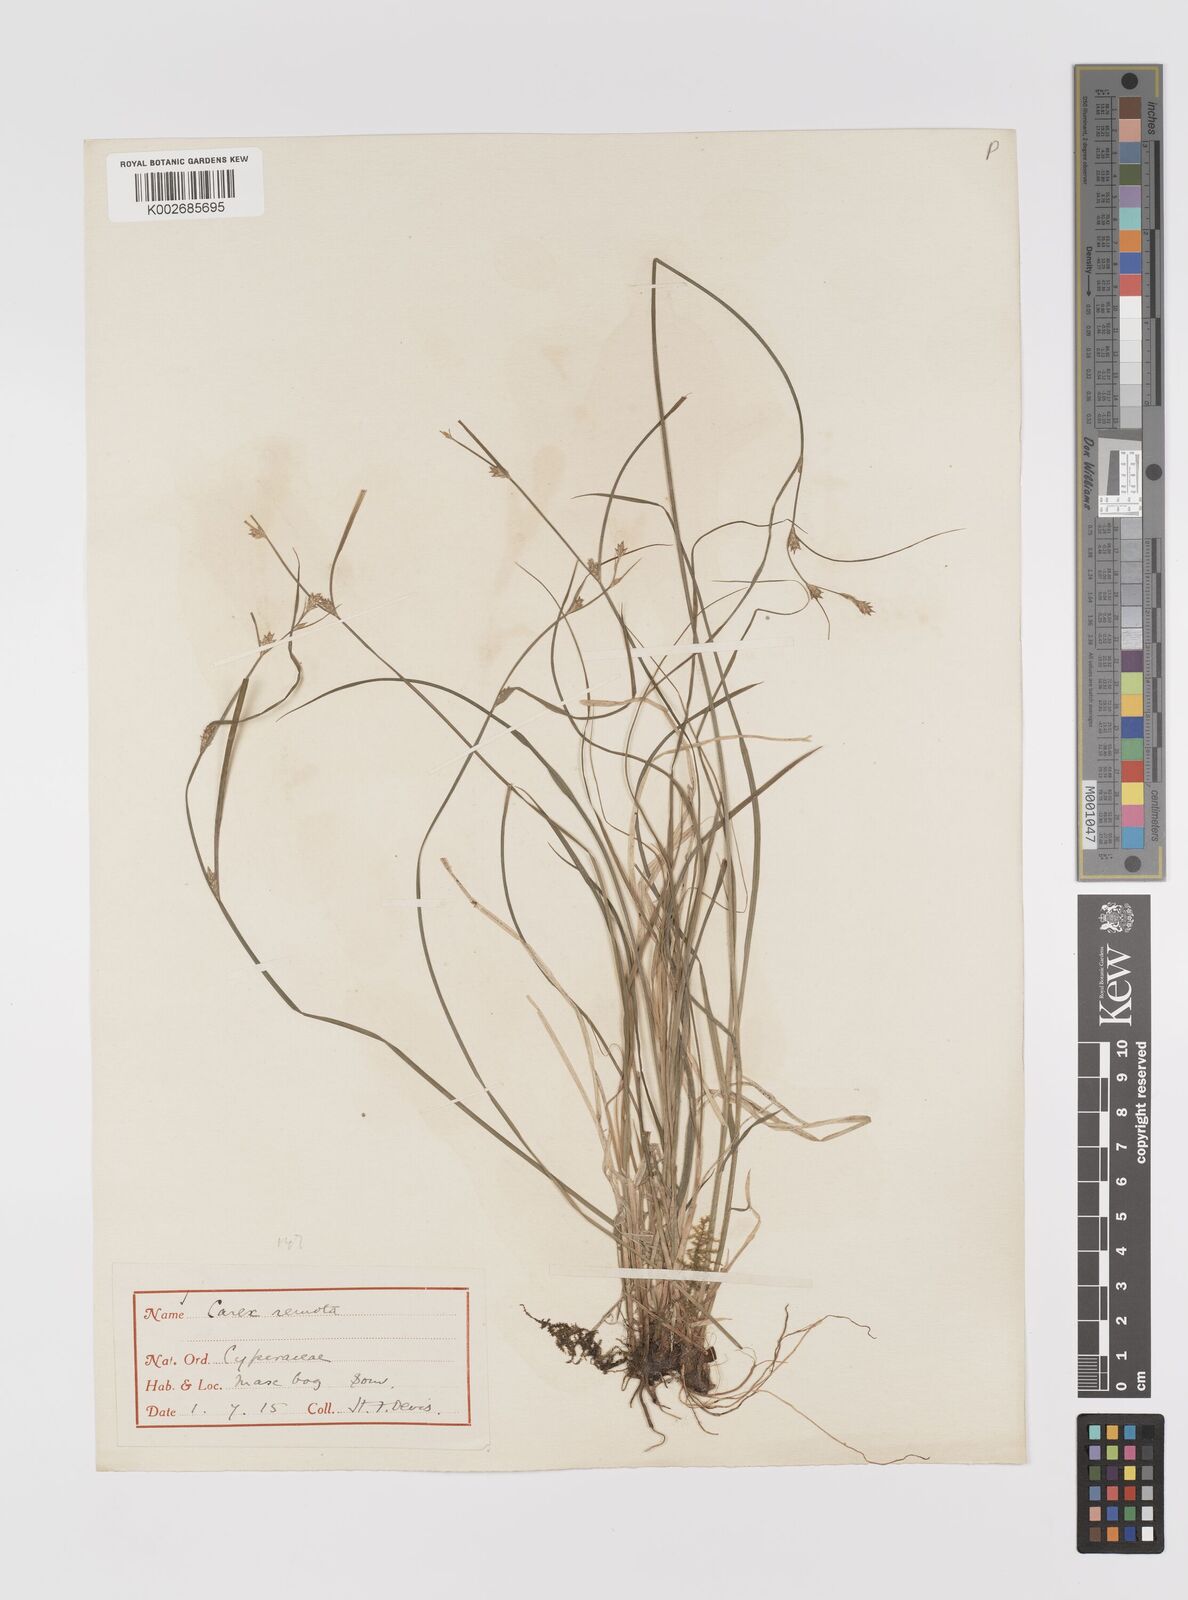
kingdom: Plantae
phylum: Tracheophyta
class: Liliopsida
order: Poales
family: Cyperaceae
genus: Carex
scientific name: Carex remota
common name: Remote sedge
